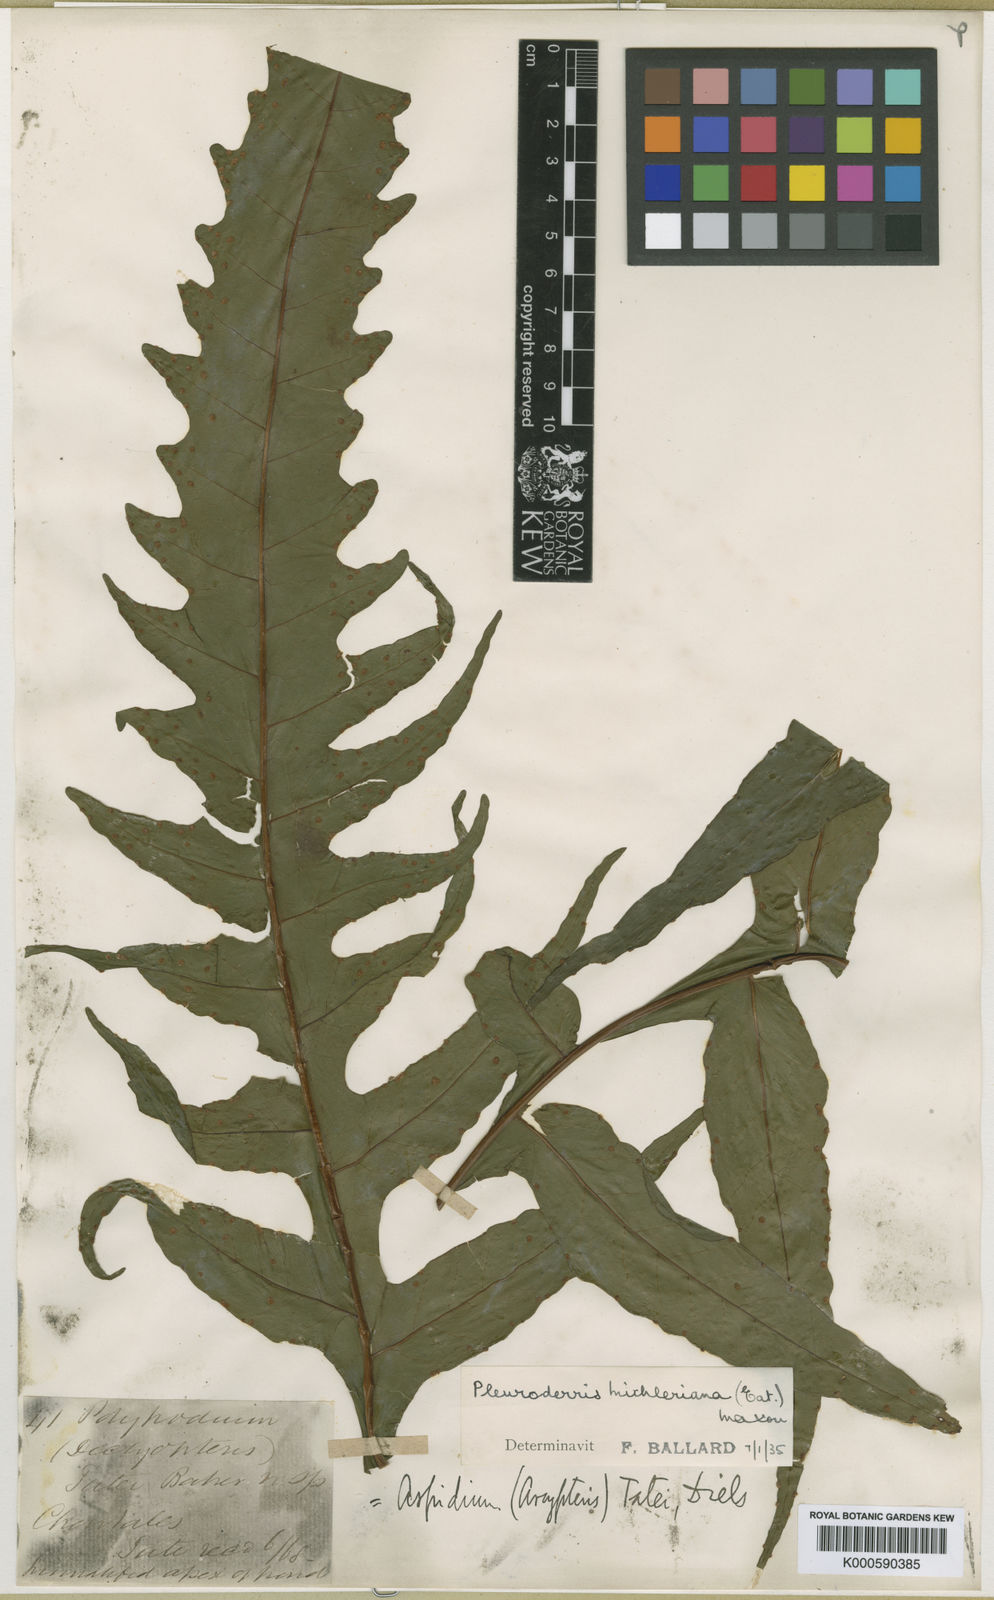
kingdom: Plantae
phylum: Tracheophyta
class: Polypodiopsida
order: Polypodiales
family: Tectariaceae
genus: Tectaria
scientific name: Tectaria michleriana
